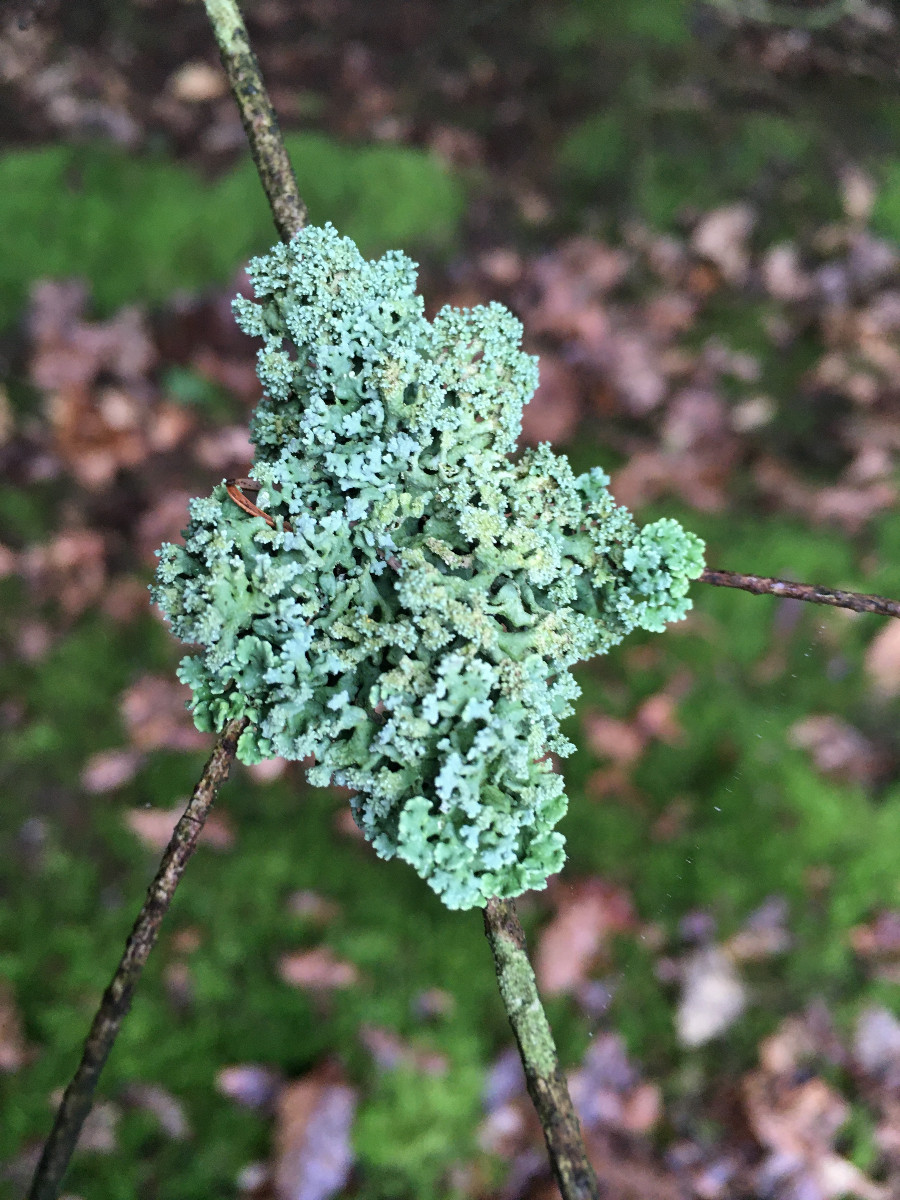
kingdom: Fungi
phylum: Ascomycota
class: Lecanoromycetes
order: Lecanorales
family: Parmeliaceae
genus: Hypogymnia
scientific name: Hypogymnia physodes
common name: almindelig kvistlav
